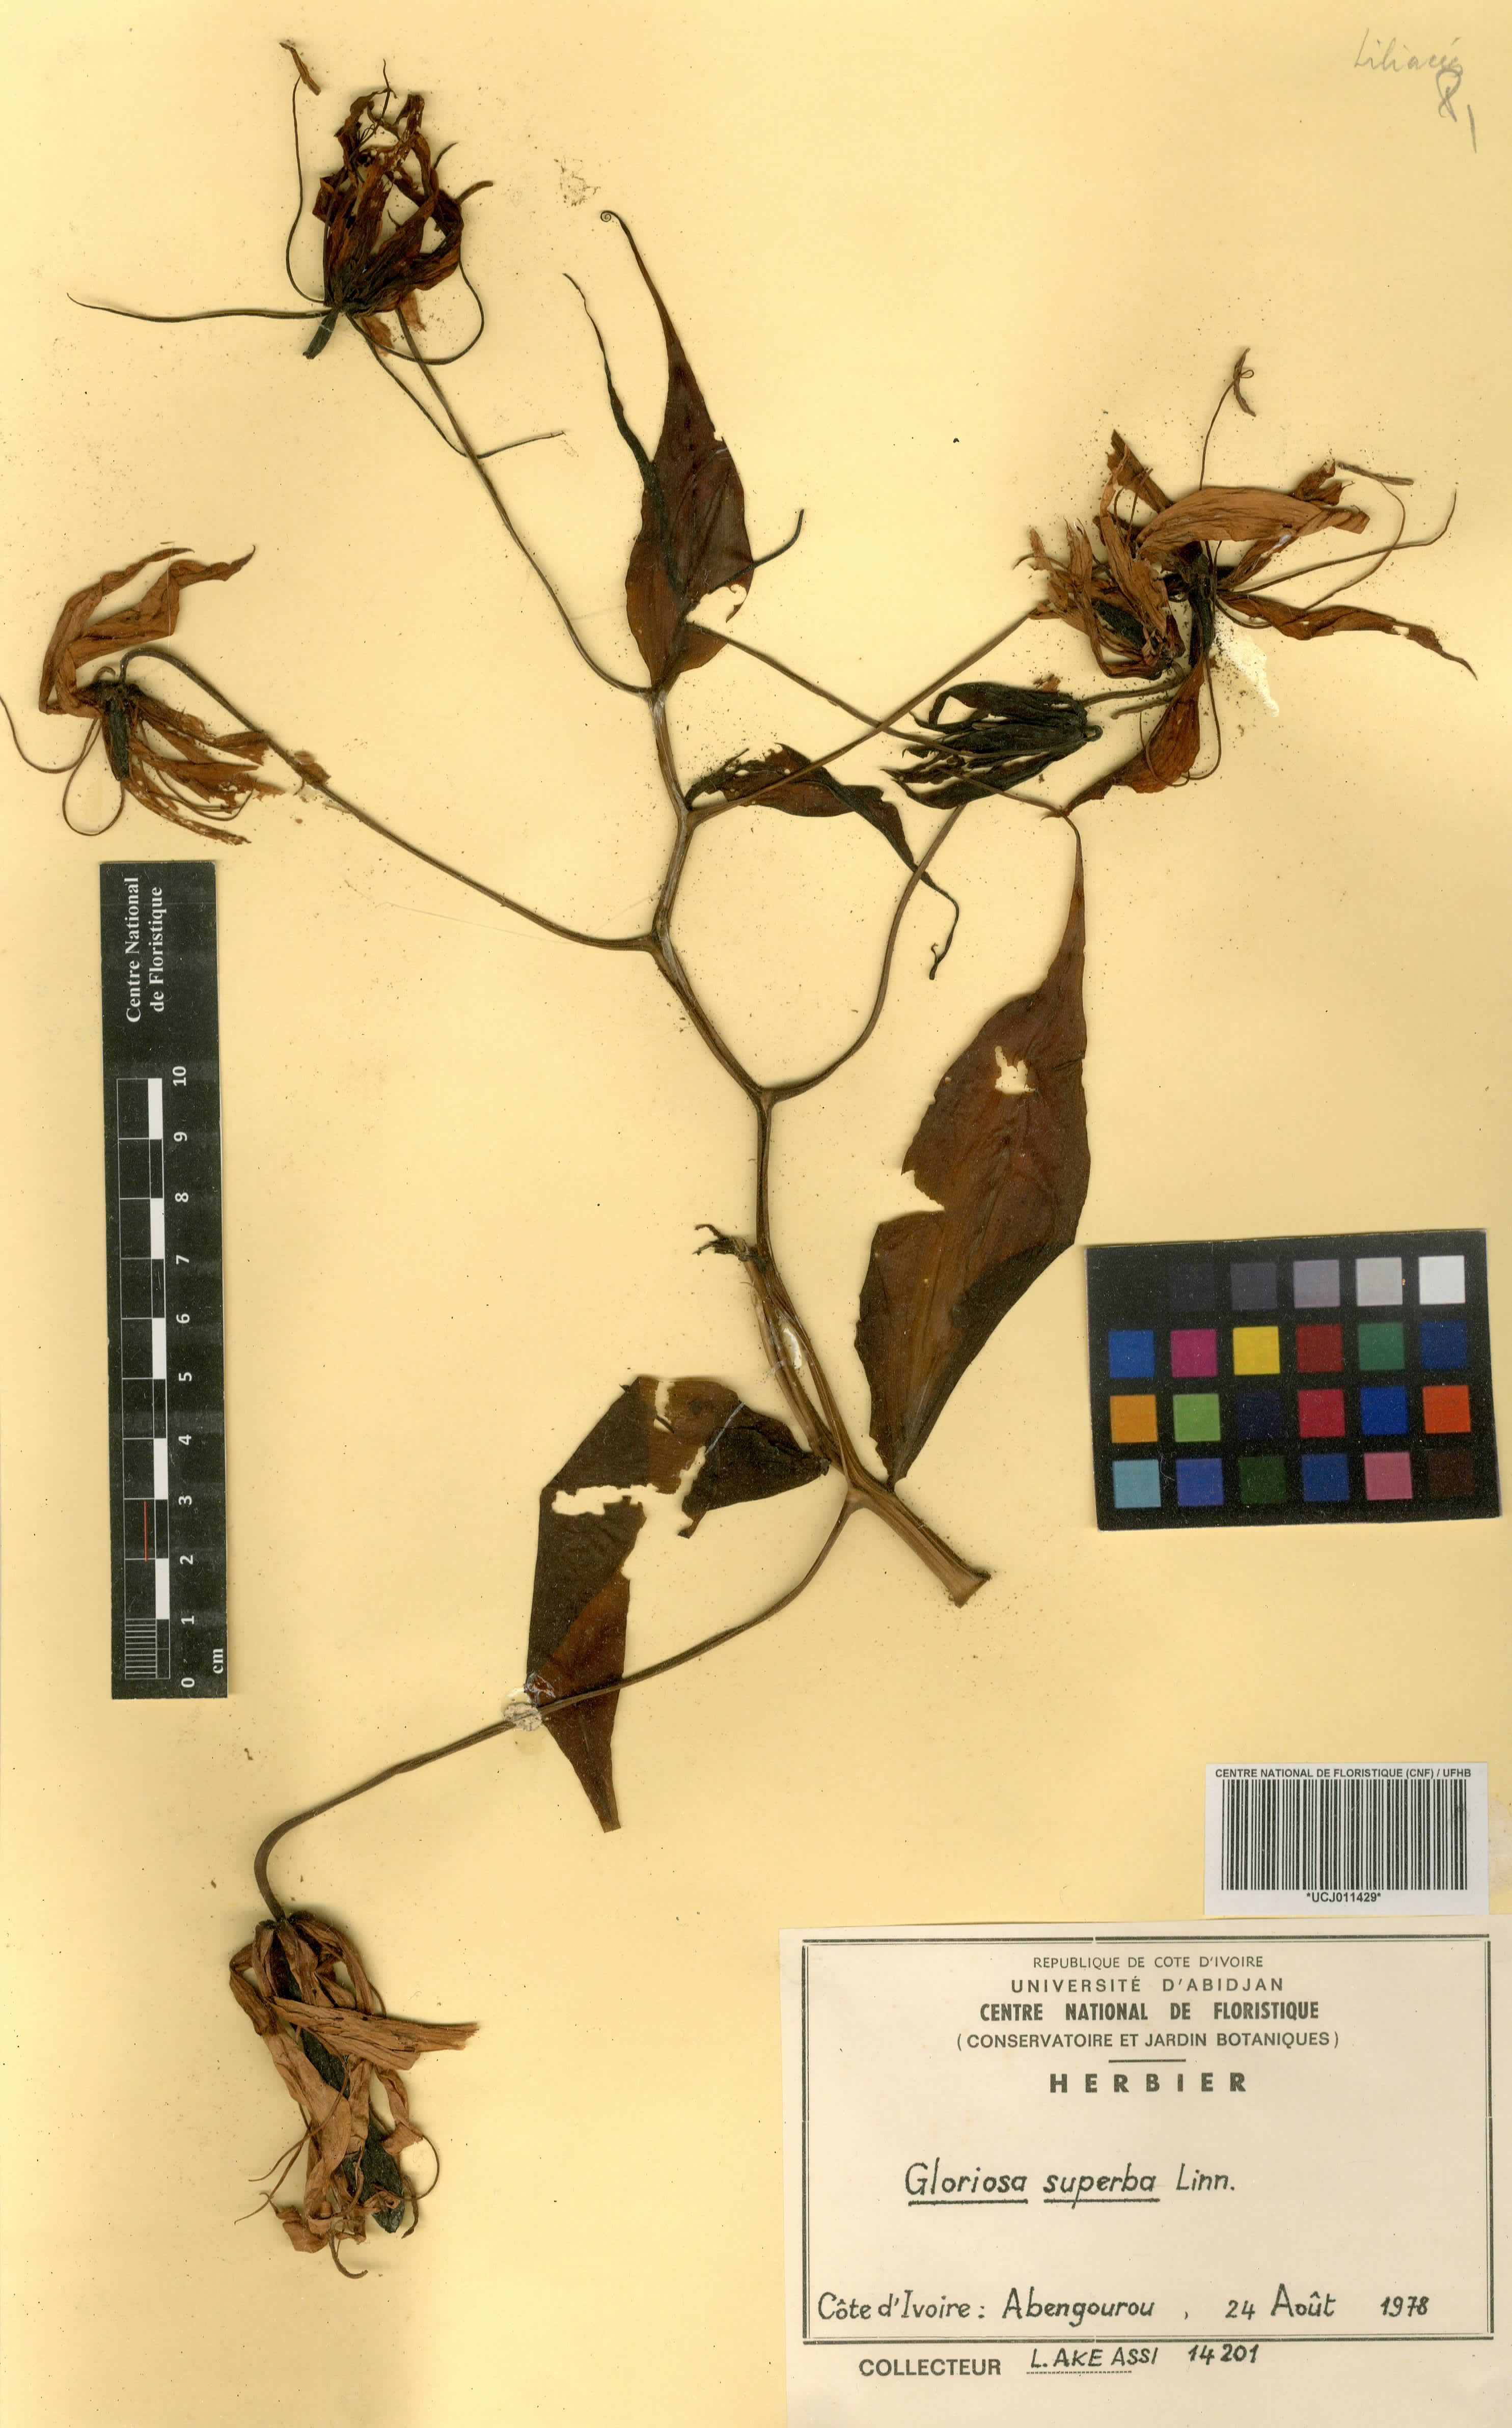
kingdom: Plantae
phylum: Tracheophyta
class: Liliopsida
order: Liliales
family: Colchicaceae
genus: Gloriosa
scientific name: Gloriosa superba
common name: Flame lily
